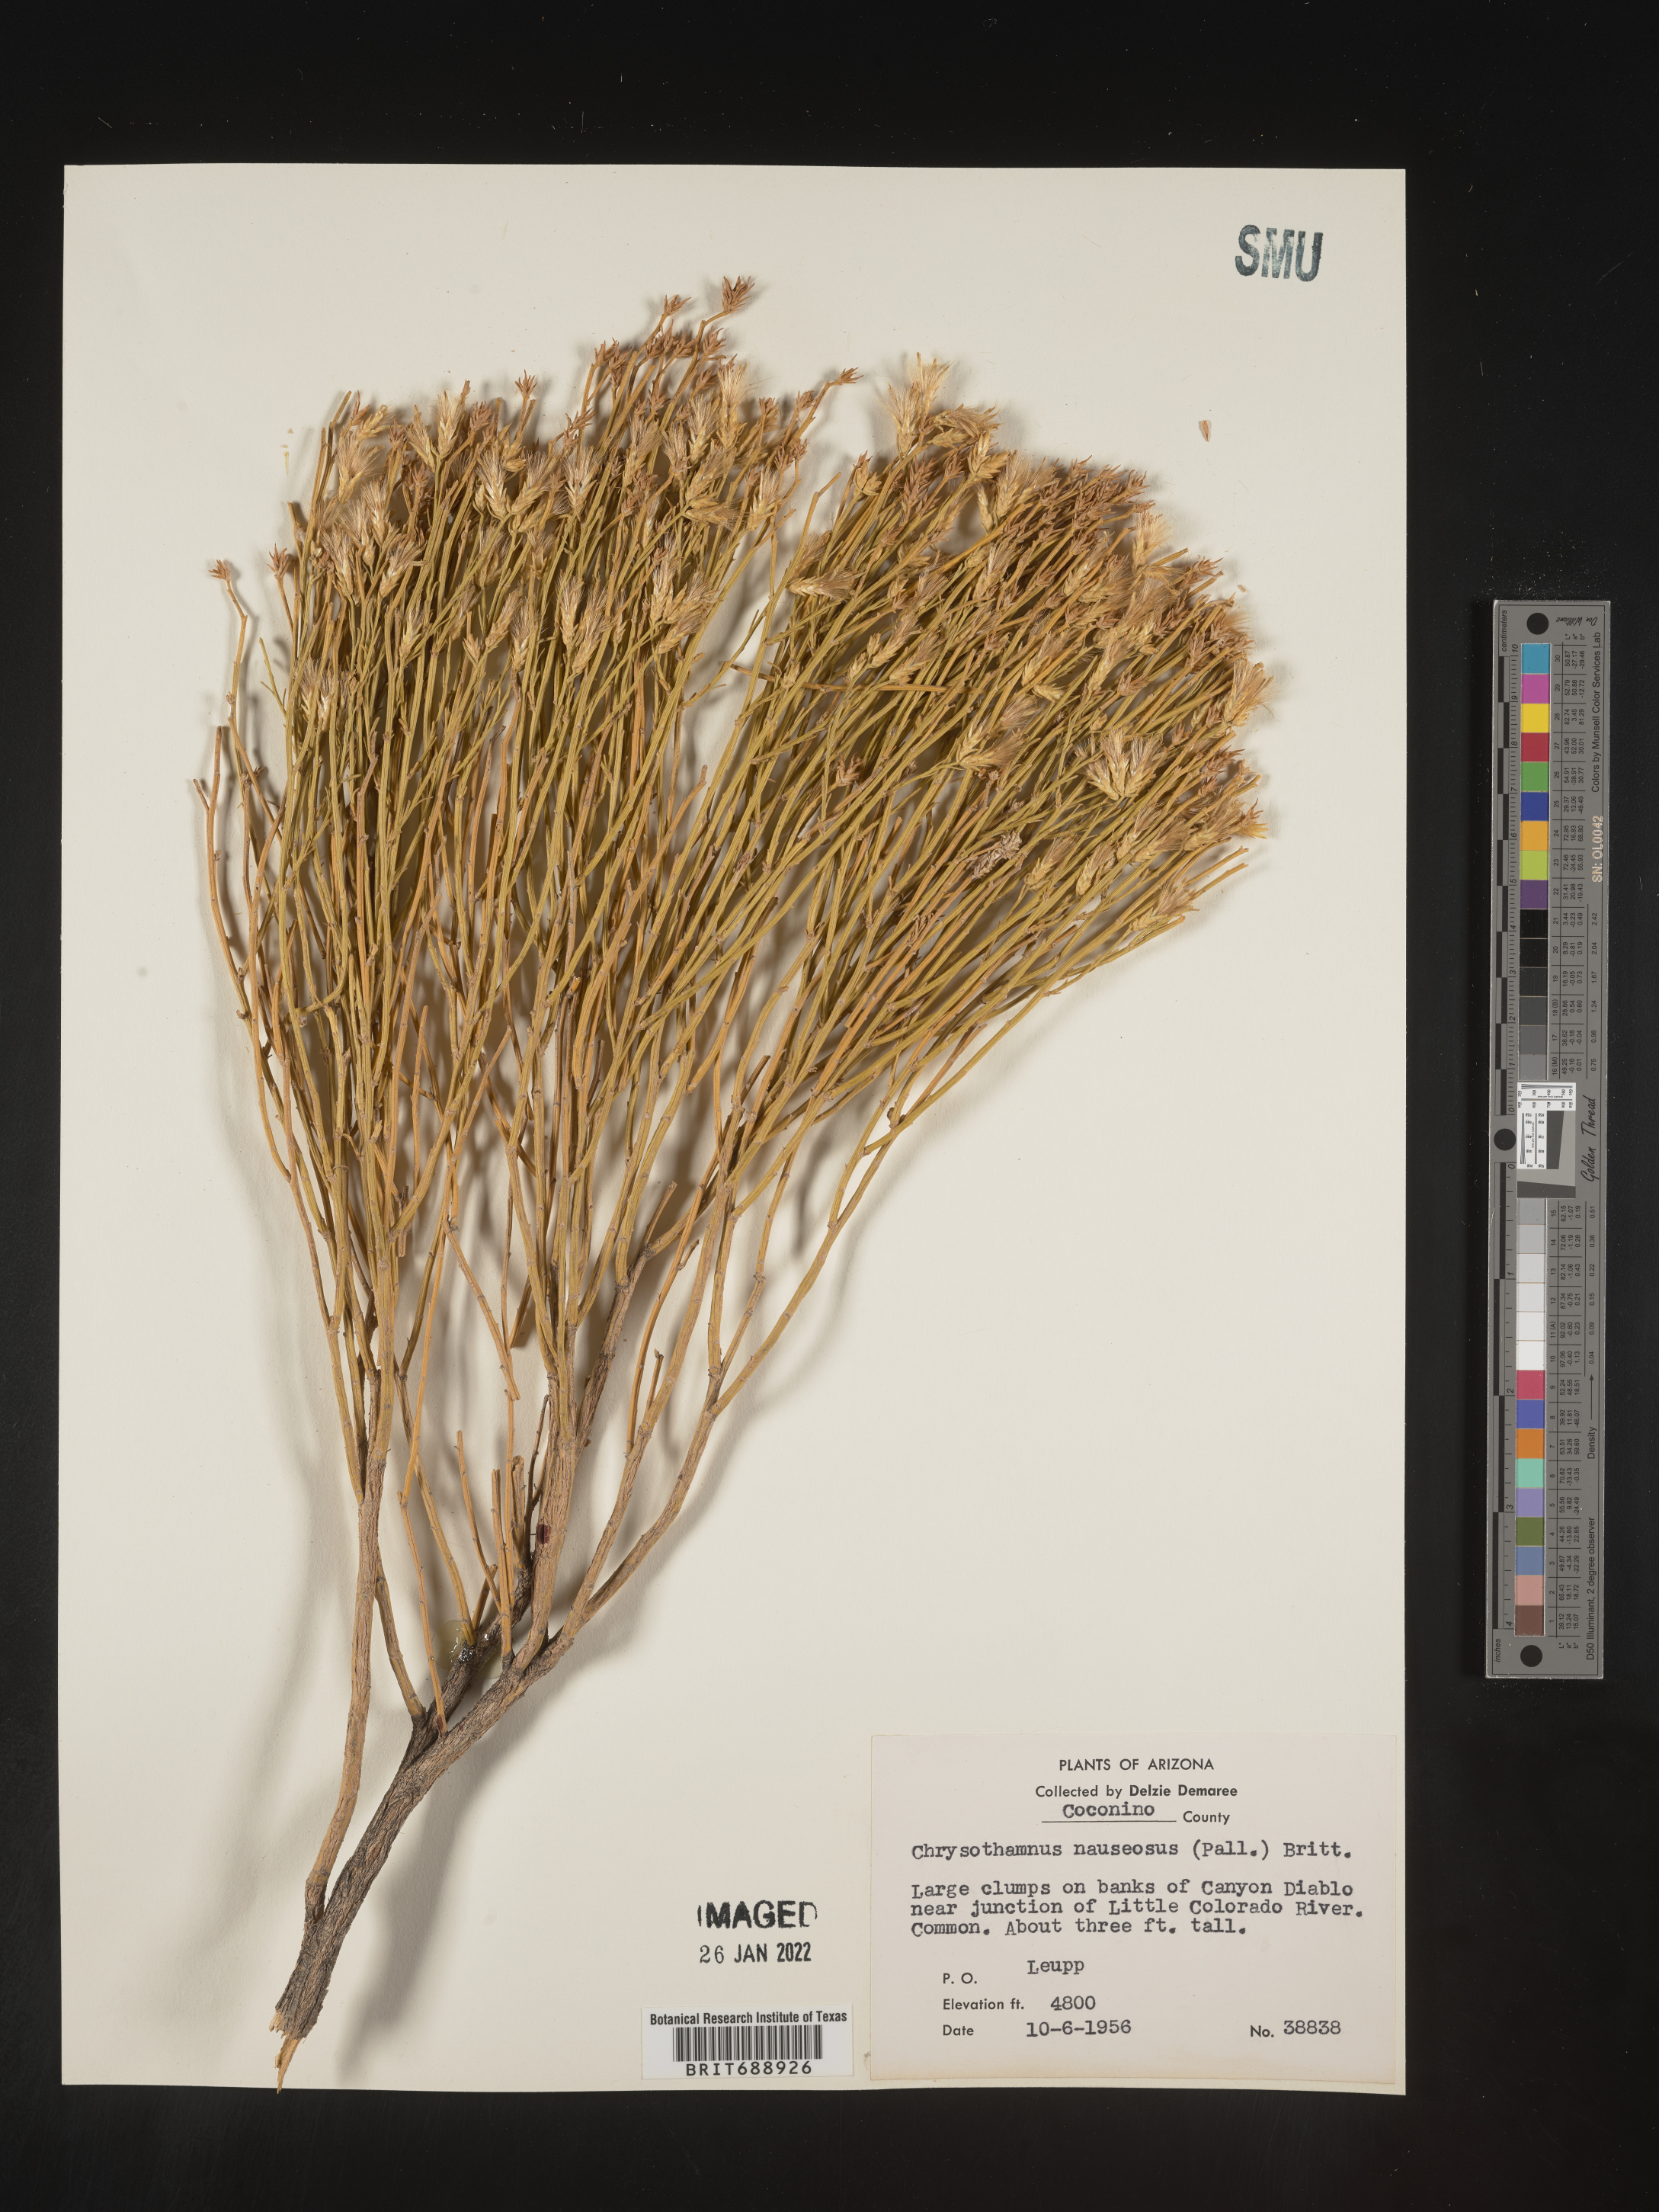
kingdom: Plantae
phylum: Tracheophyta
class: Magnoliopsida
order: Asterales
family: Asteraceae
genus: Ericameria
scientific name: Ericameria nauseosa
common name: Rubber rabbitbrush
